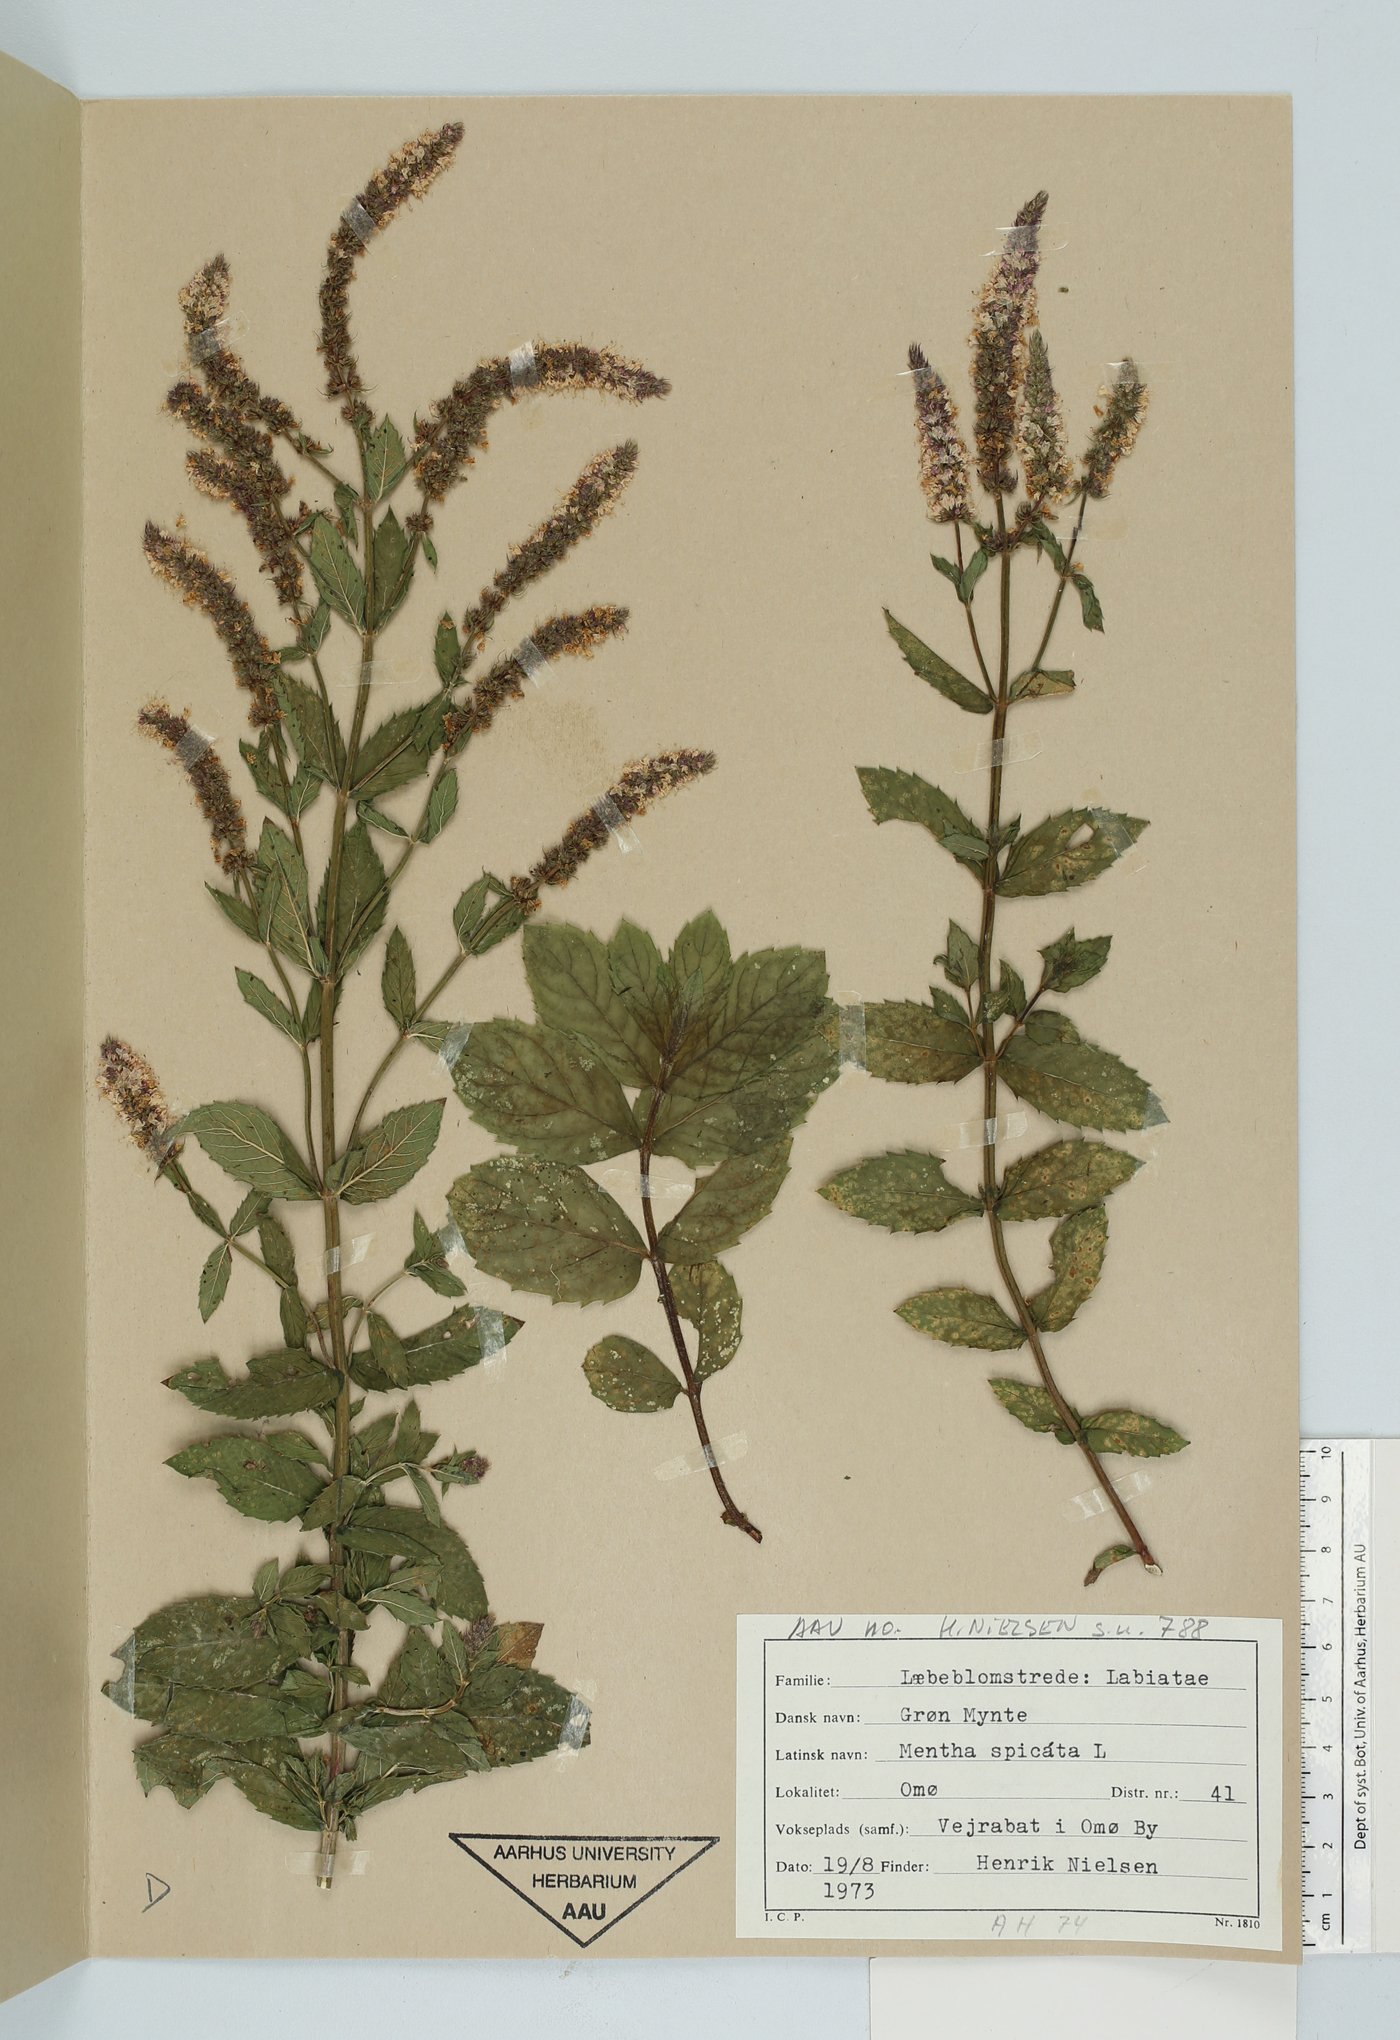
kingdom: Plantae
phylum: Tracheophyta
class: Magnoliopsida
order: Lamiales
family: Lamiaceae
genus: Mentha
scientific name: Mentha spicata
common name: Spearmint
